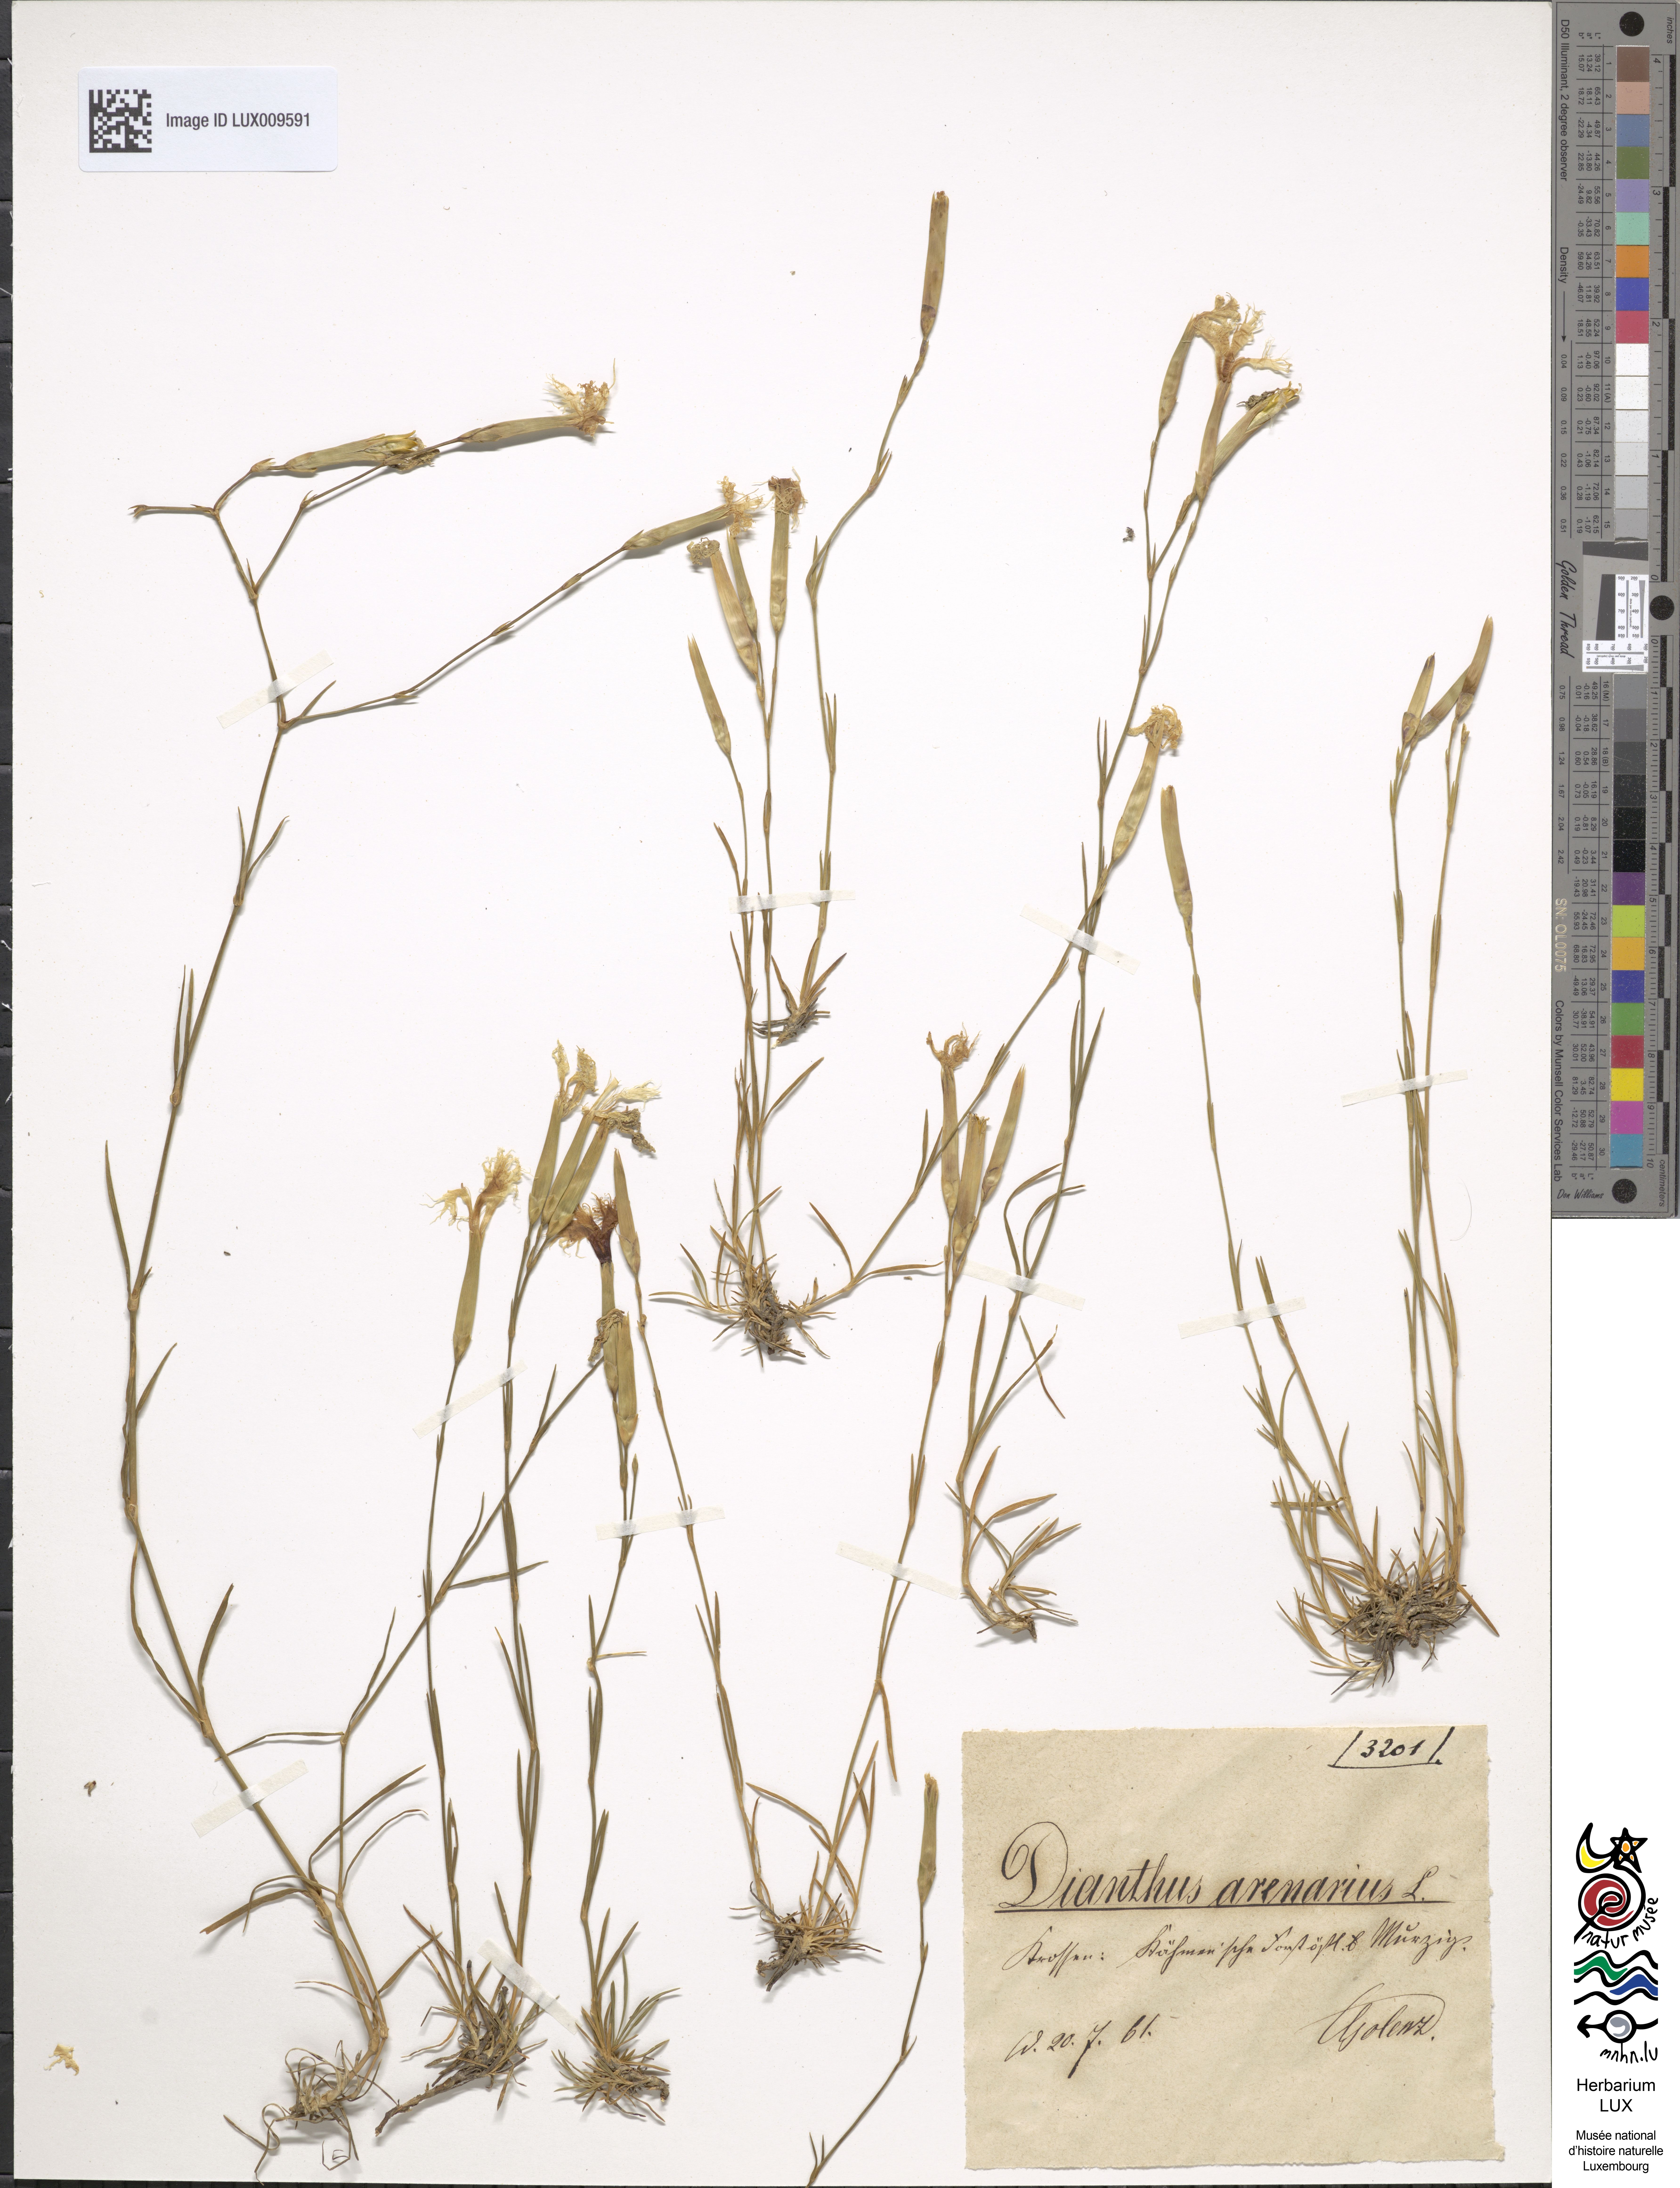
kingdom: Plantae
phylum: Tracheophyta
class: Magnoliopsida
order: Caryophyllales
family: Caryophyllaceae
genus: Dianthus
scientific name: Dianthus arenarius
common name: Stone pink
